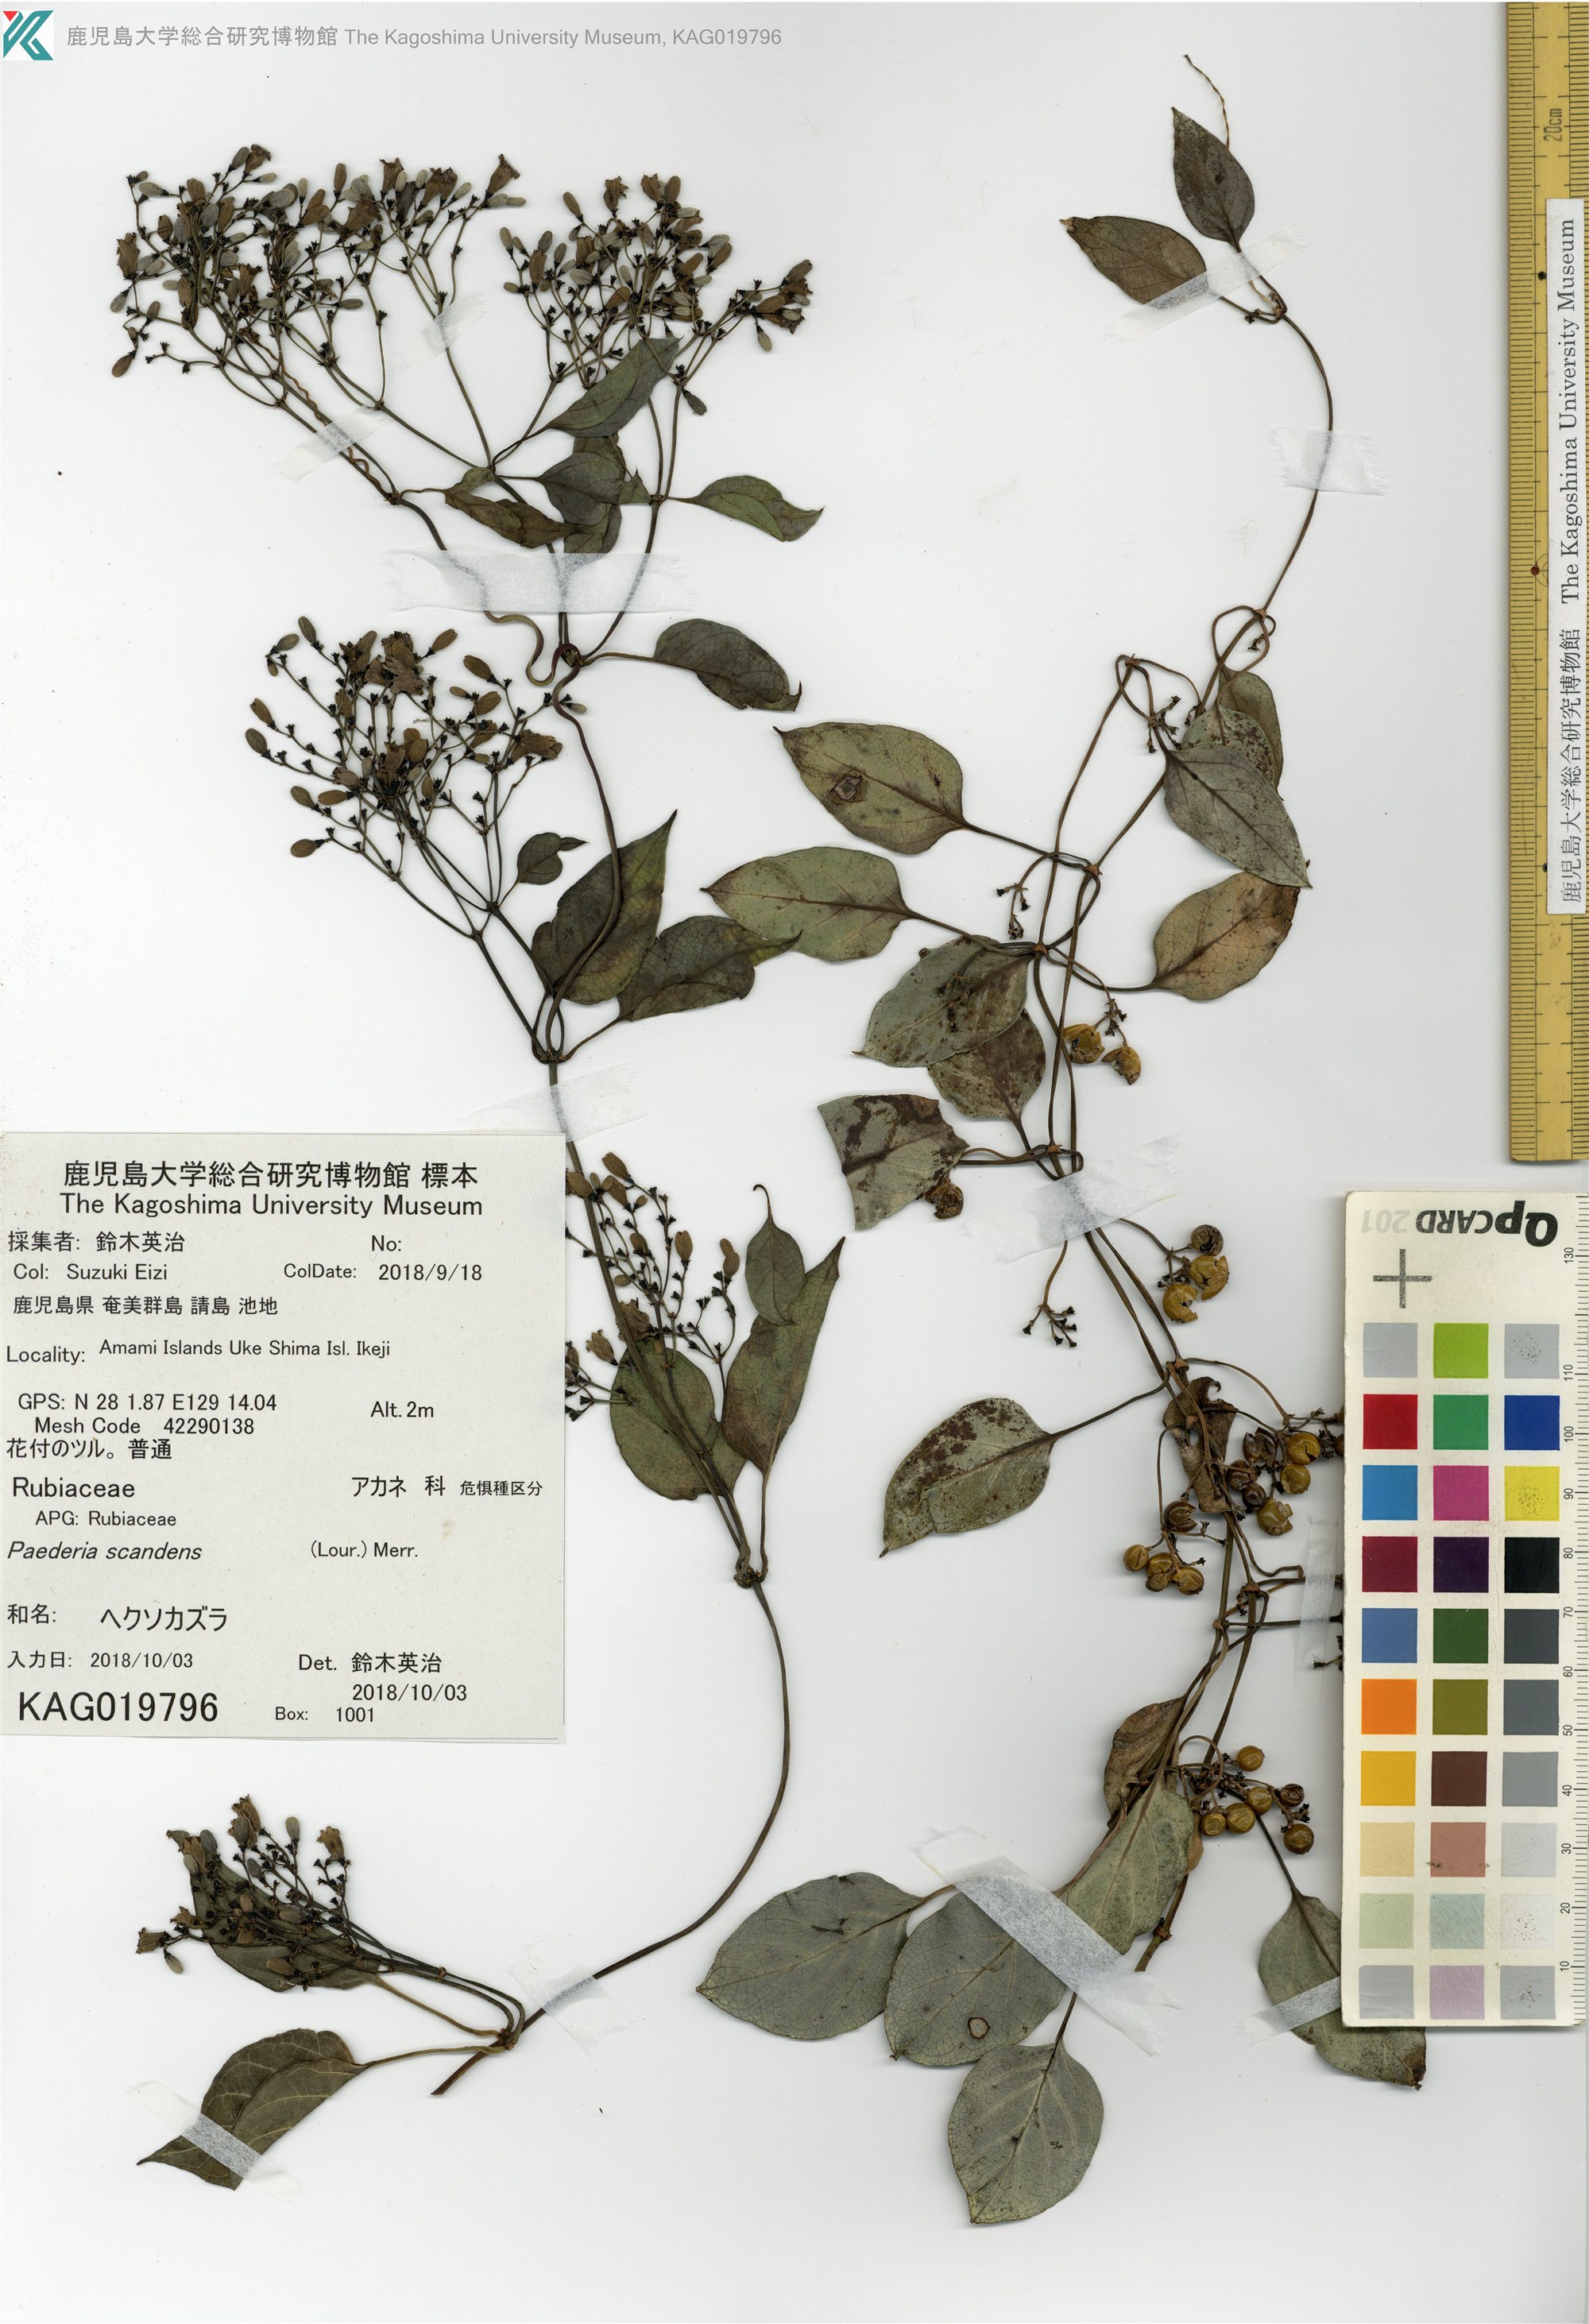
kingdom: Plantae
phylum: Tracheophyta
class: Magnoliopsida
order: Gentianales
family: Rubiaceae
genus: Paederia
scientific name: Paederia foetida
